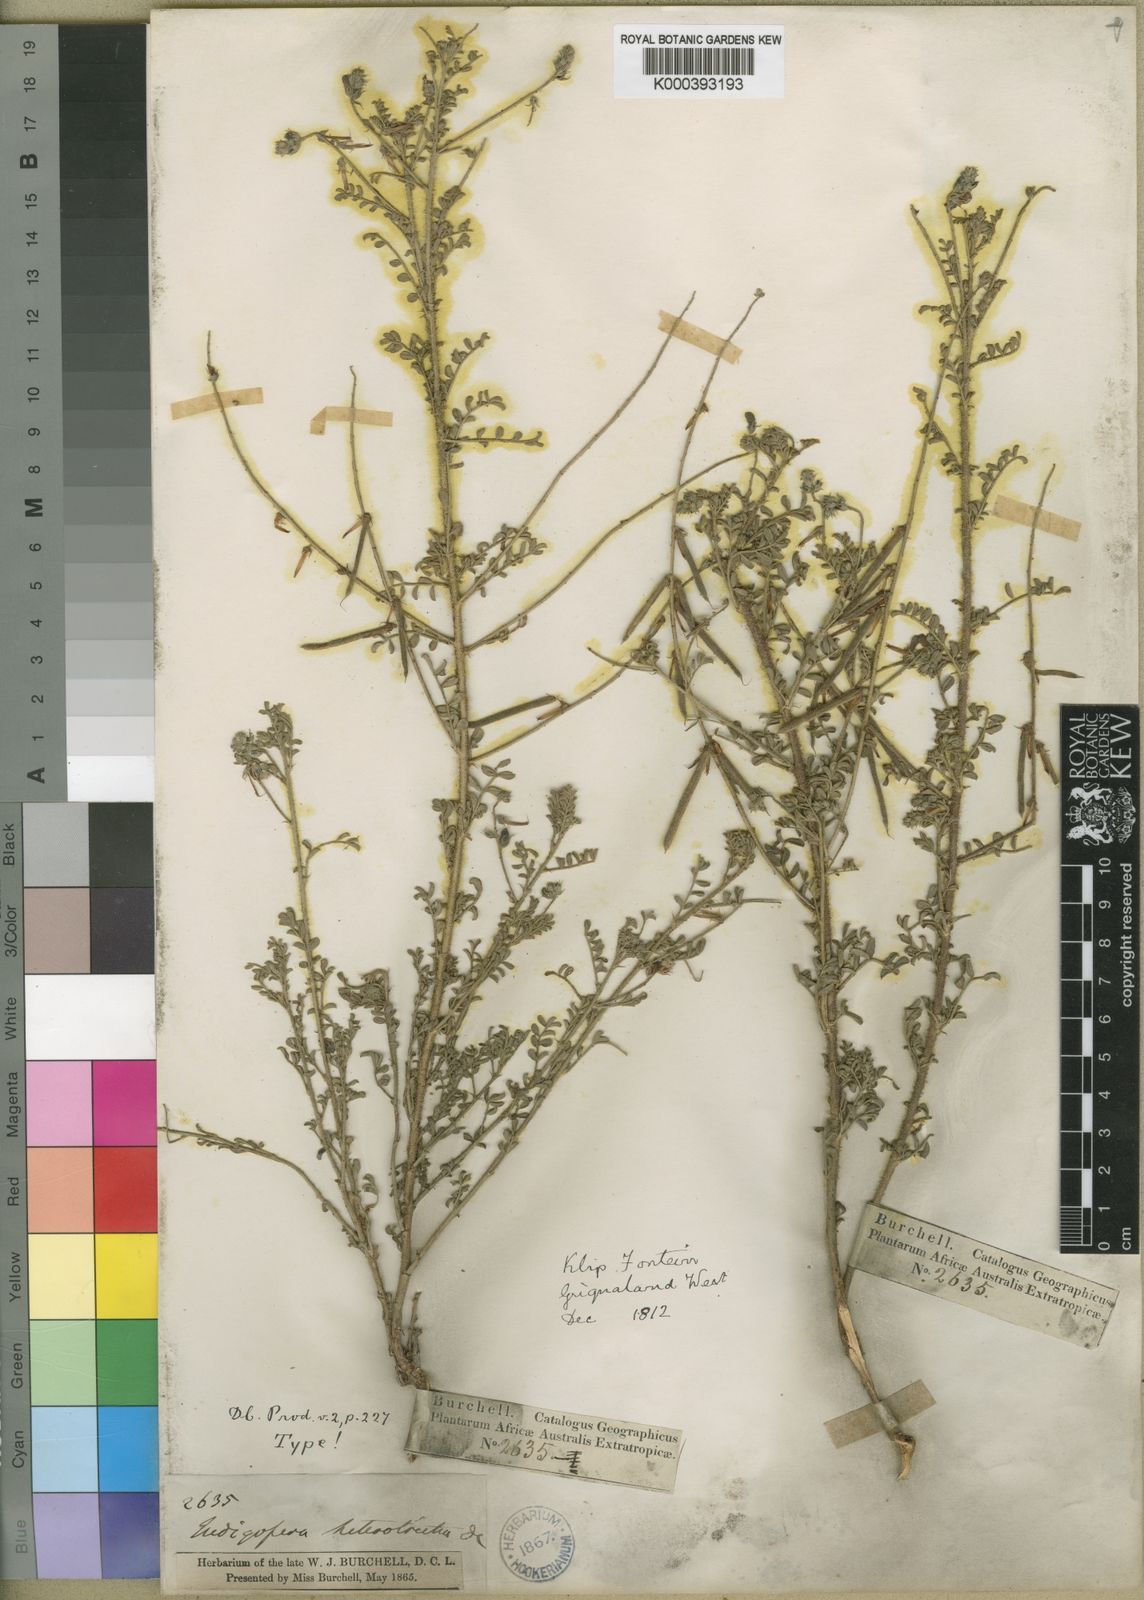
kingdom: Plantae
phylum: Tracheophyta
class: Magnoliopsida
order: Fabales
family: Fabaceae
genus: Indigofera
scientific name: Indigofera heterotricha
